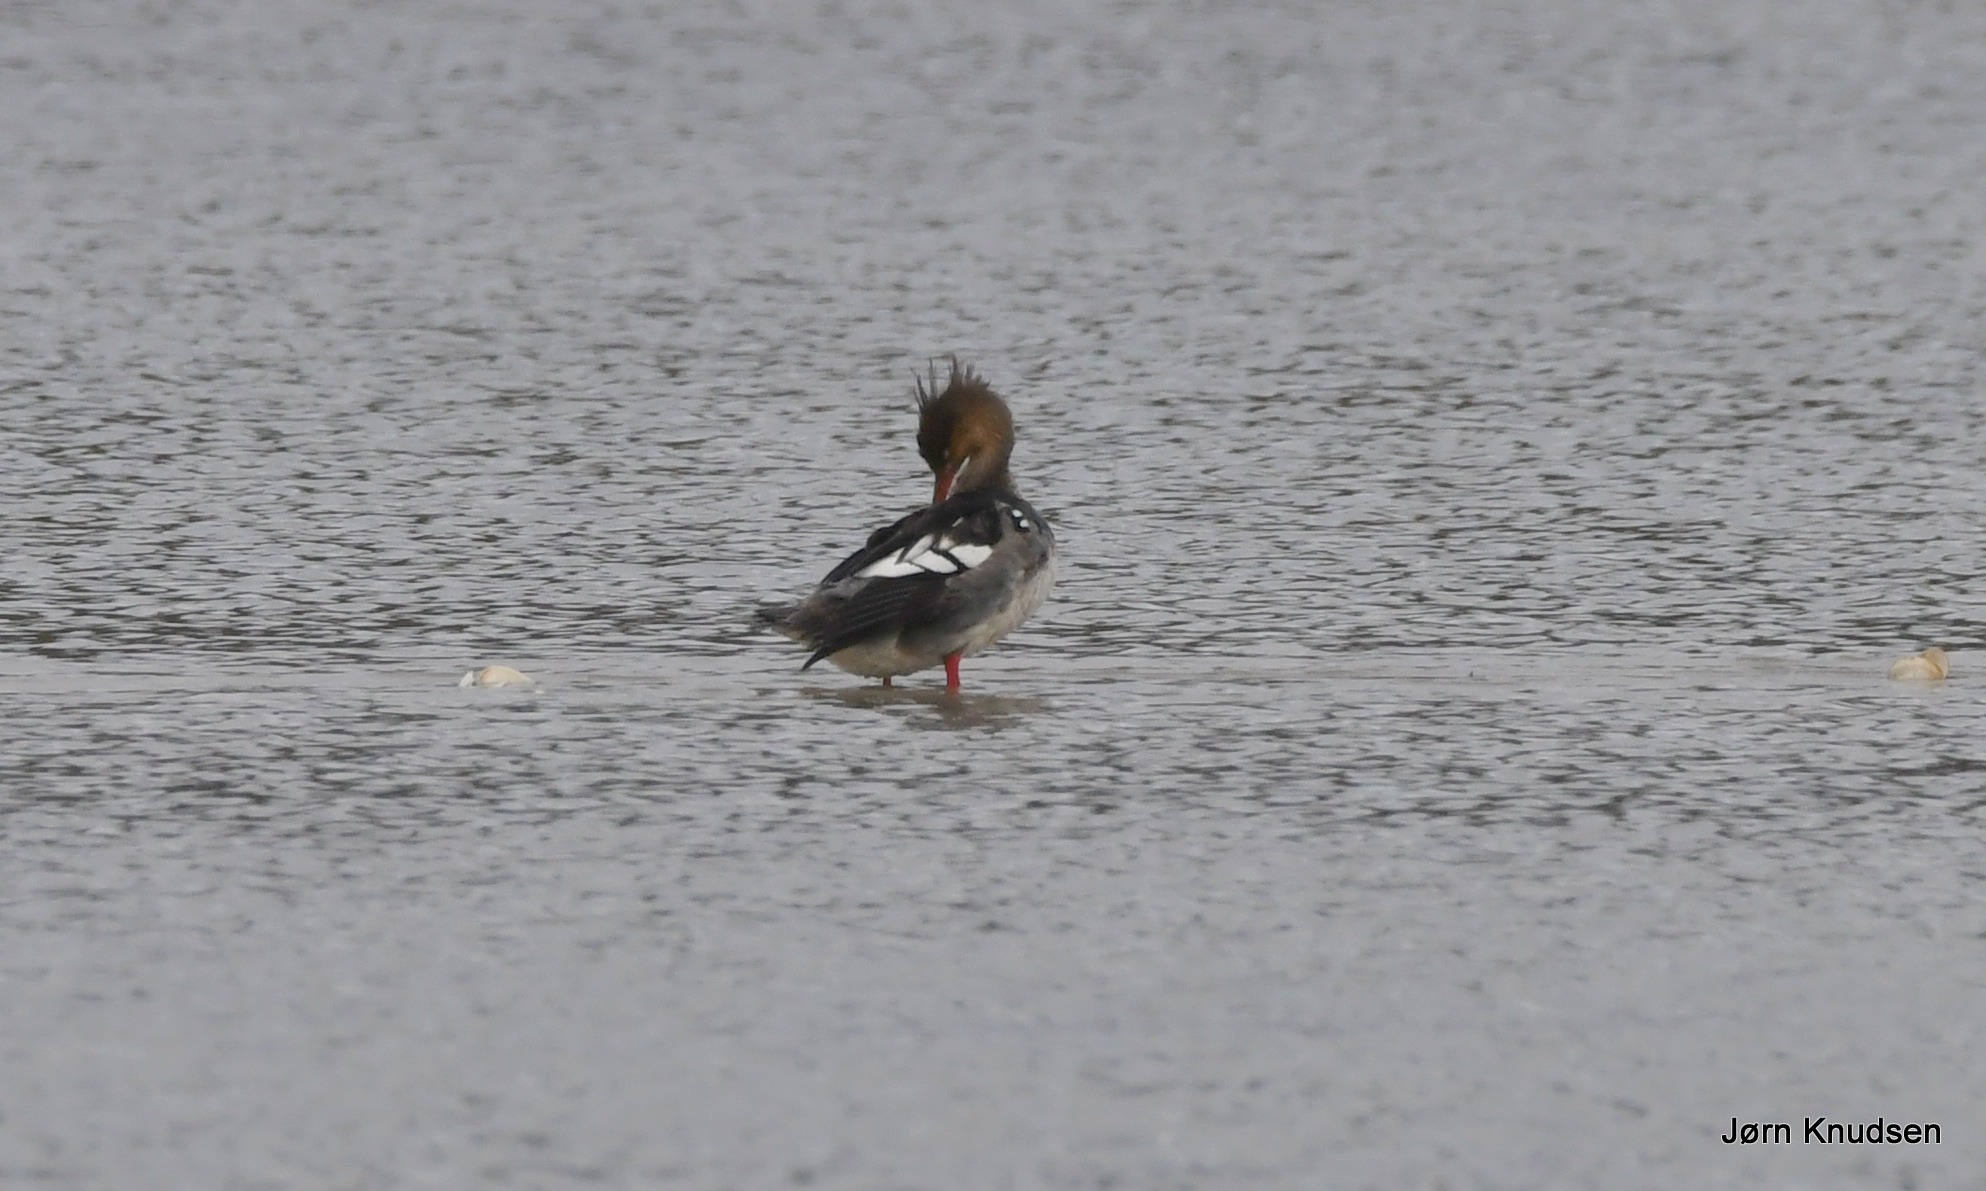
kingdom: Animalia
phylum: Chordata
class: Aves
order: Anseriformes
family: Anatidae
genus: Mergus
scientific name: Mergus serrator
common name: Toppet skallesluger
